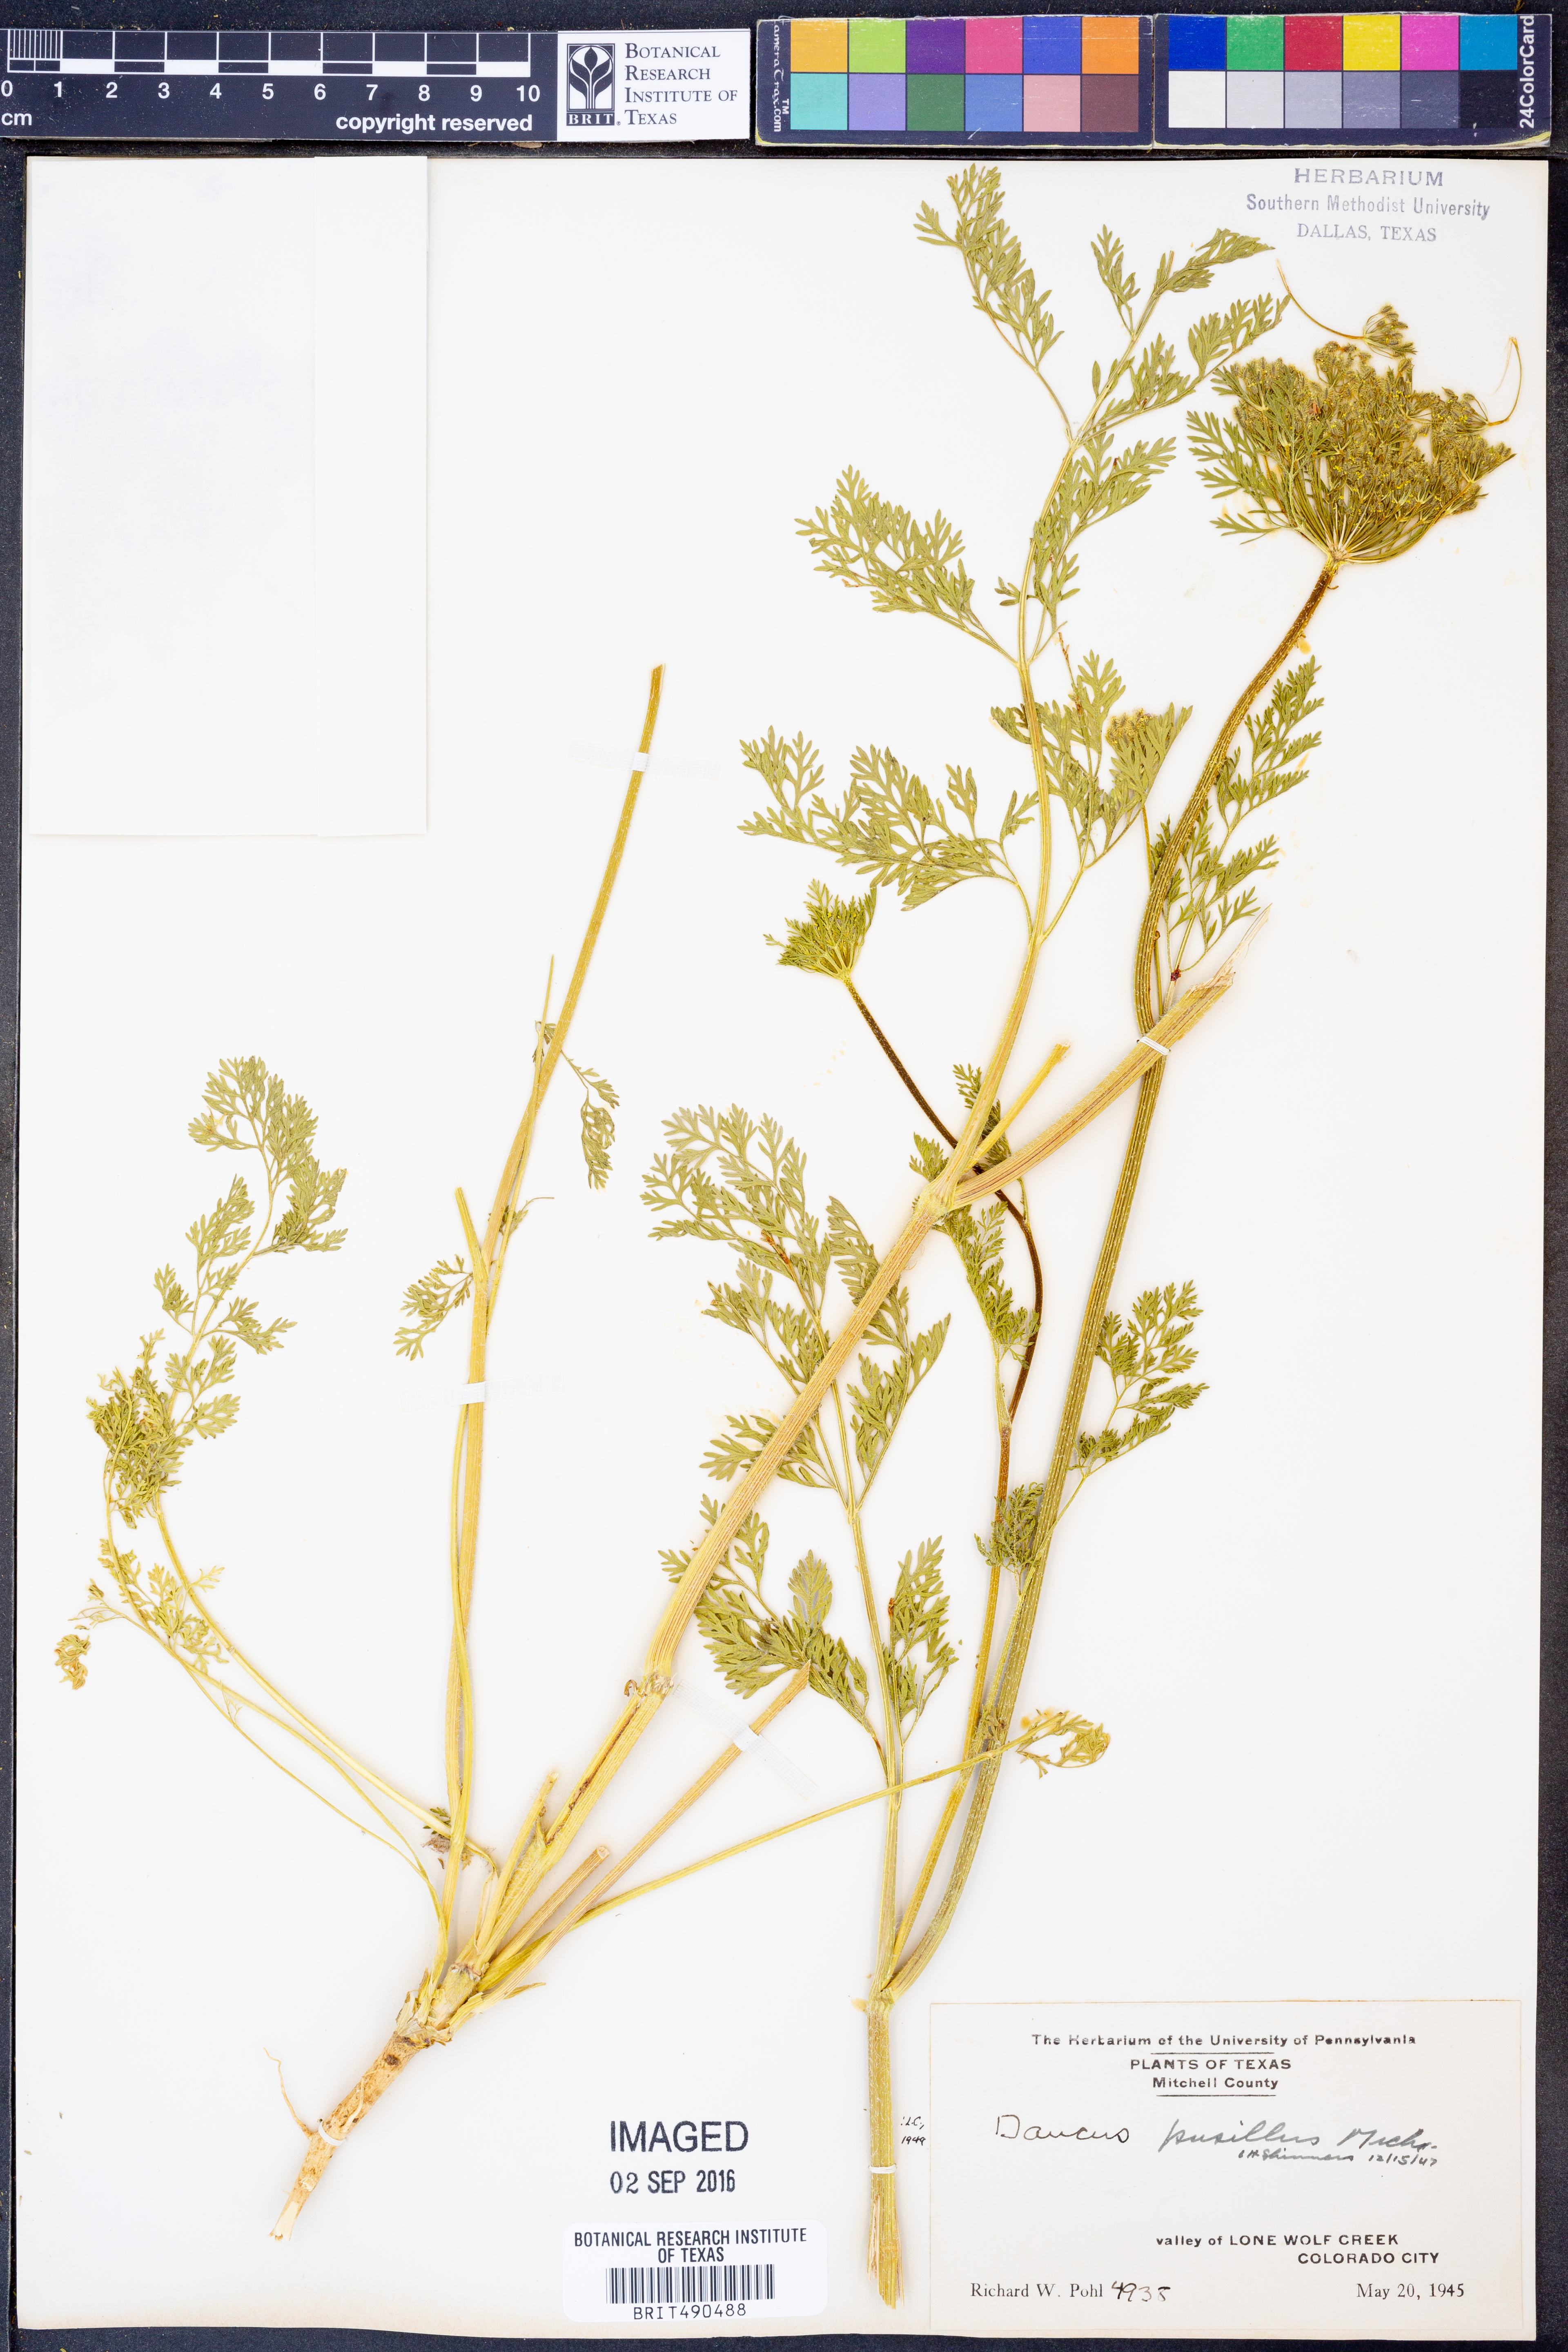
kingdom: Plantae
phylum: Tracheophyta
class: Magnoliopsida
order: Apiales
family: Apiaceae
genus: Daucus
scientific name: Daucus pusillus
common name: Southwest wild carrot
